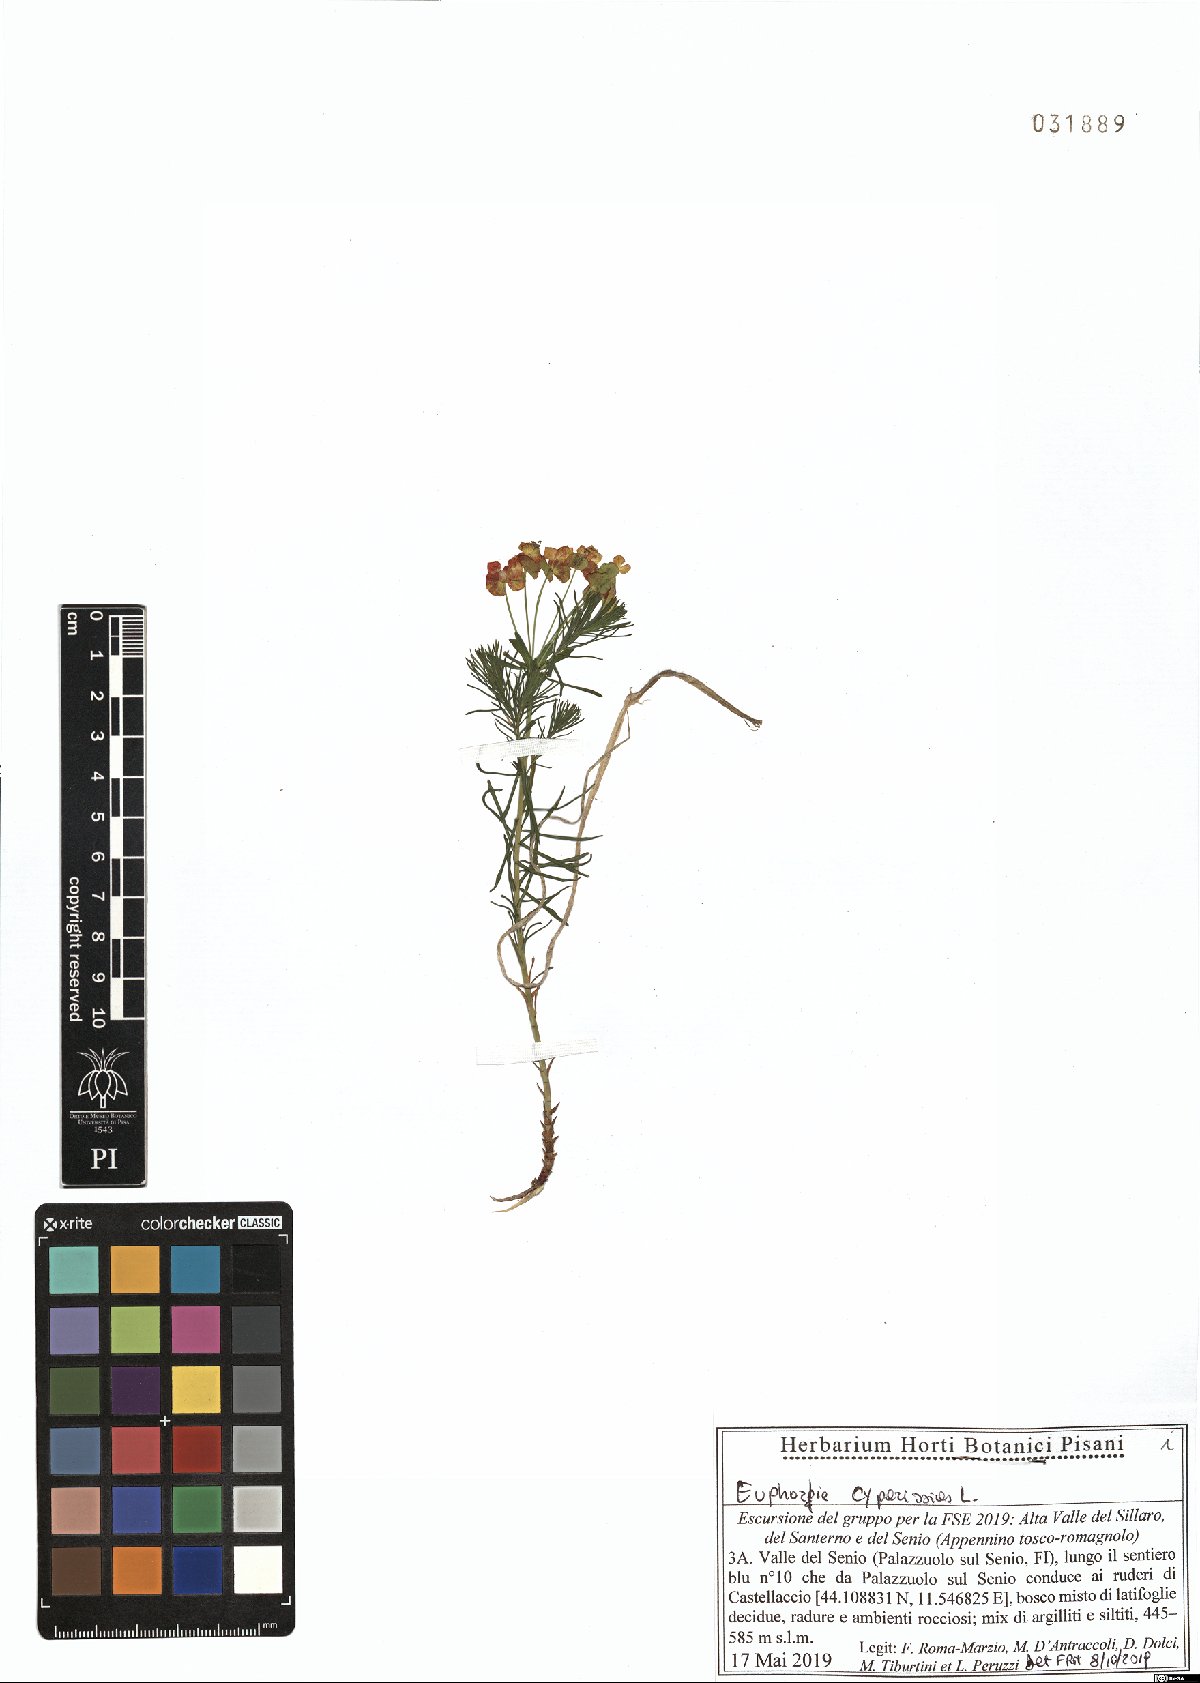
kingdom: Plantae
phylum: Tracheophyta
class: Magnoliopsida
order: Malpighiales
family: Euphorbiaceae
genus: Euphorbia
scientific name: Euphorbia cyparissias
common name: Cypress spurge
